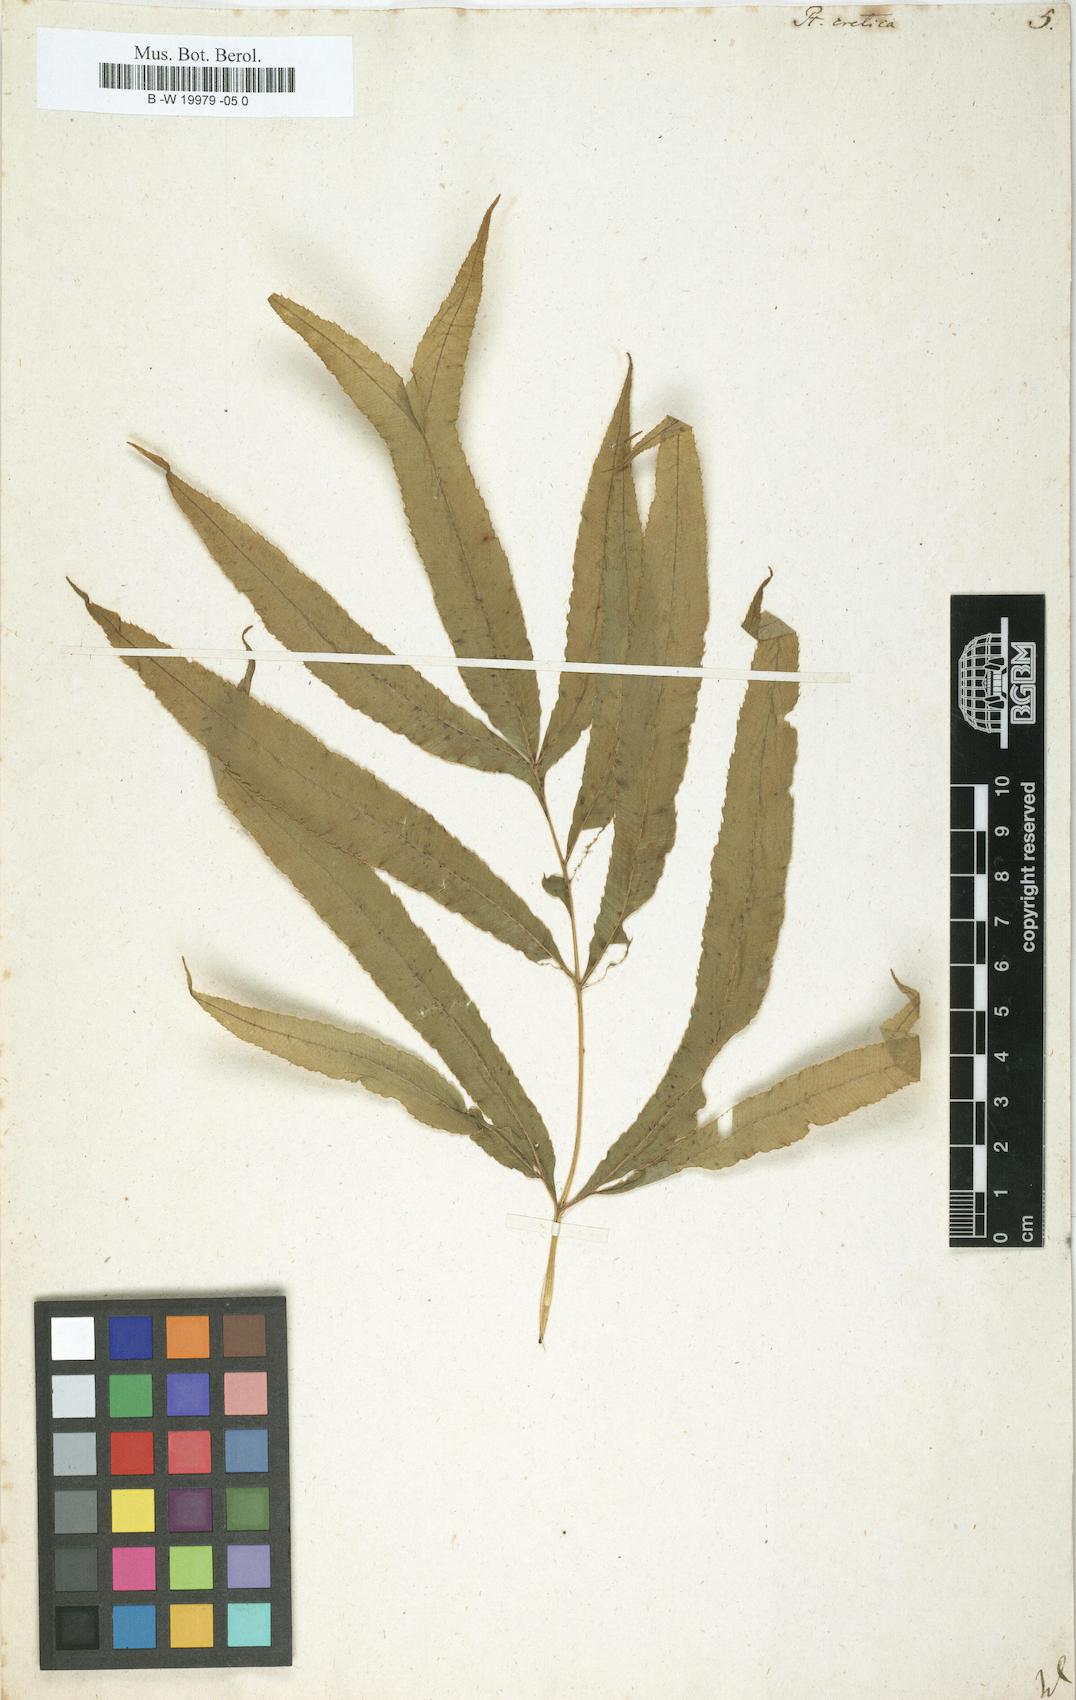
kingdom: Plantae
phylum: Tracheophyta
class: Polypodiopsida
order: Polypodiales
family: Pteridaceae
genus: Pteris
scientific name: Pteris cretica
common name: Ribbon fern
